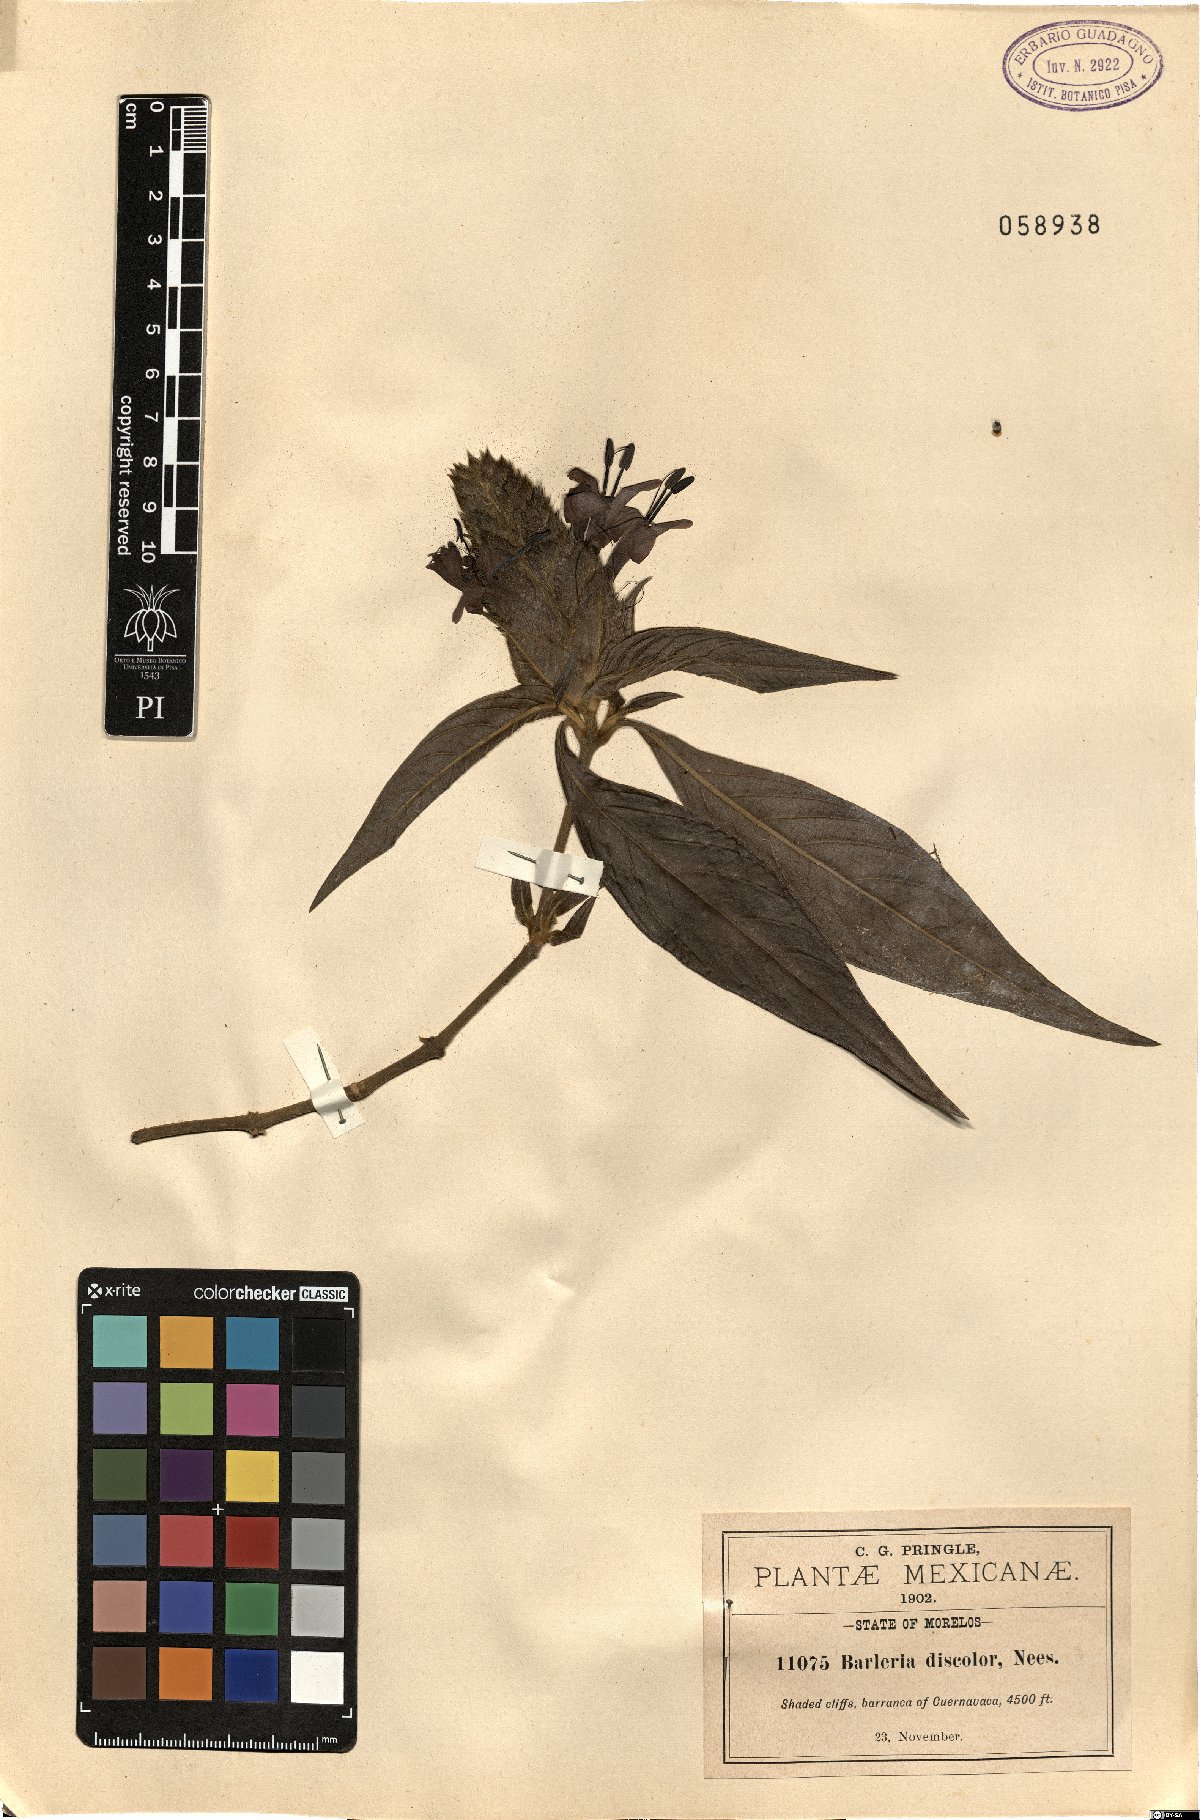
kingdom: Plantae
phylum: Tracheophyta
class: Magnoliopsida
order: Lamiales
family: Acanthaceae
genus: Barleria
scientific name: Barleria oenotheroides
